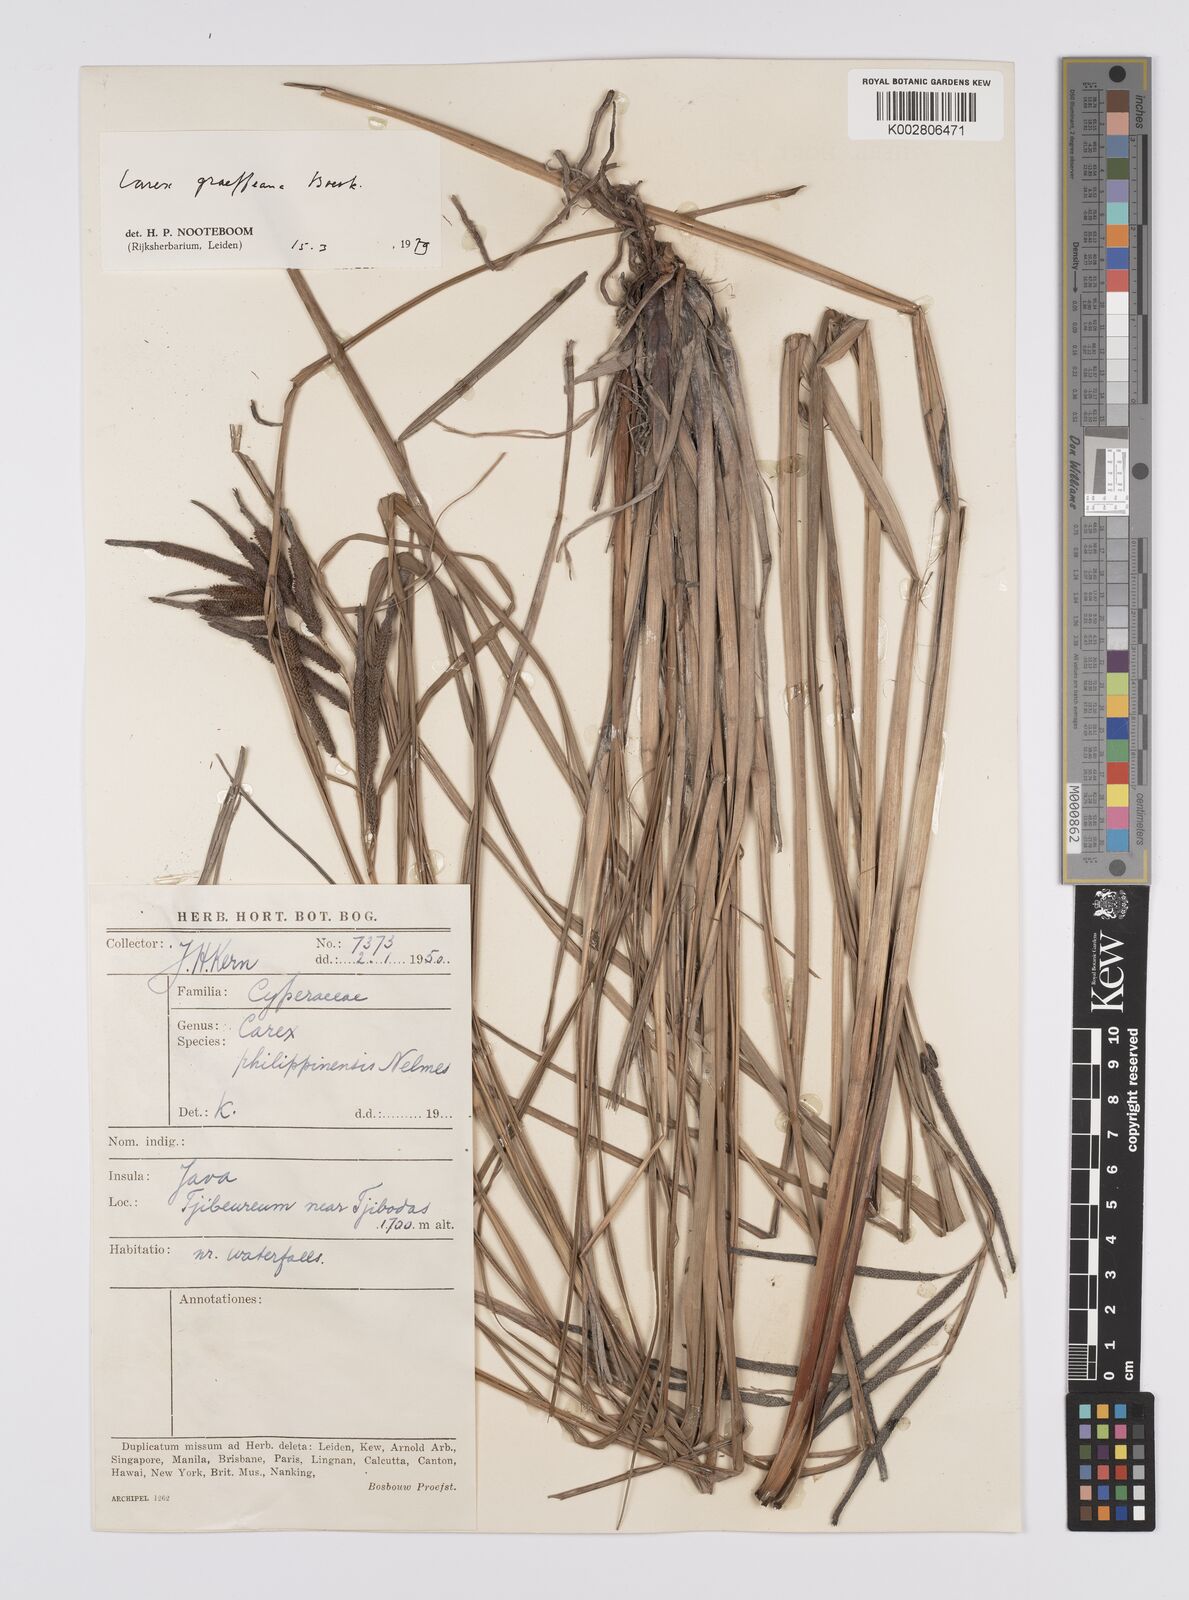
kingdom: Plantae
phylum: Tracheophyta
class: Liliopsida
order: Poales
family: Cyperaceae
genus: Carex
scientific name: Carex graeffeana
